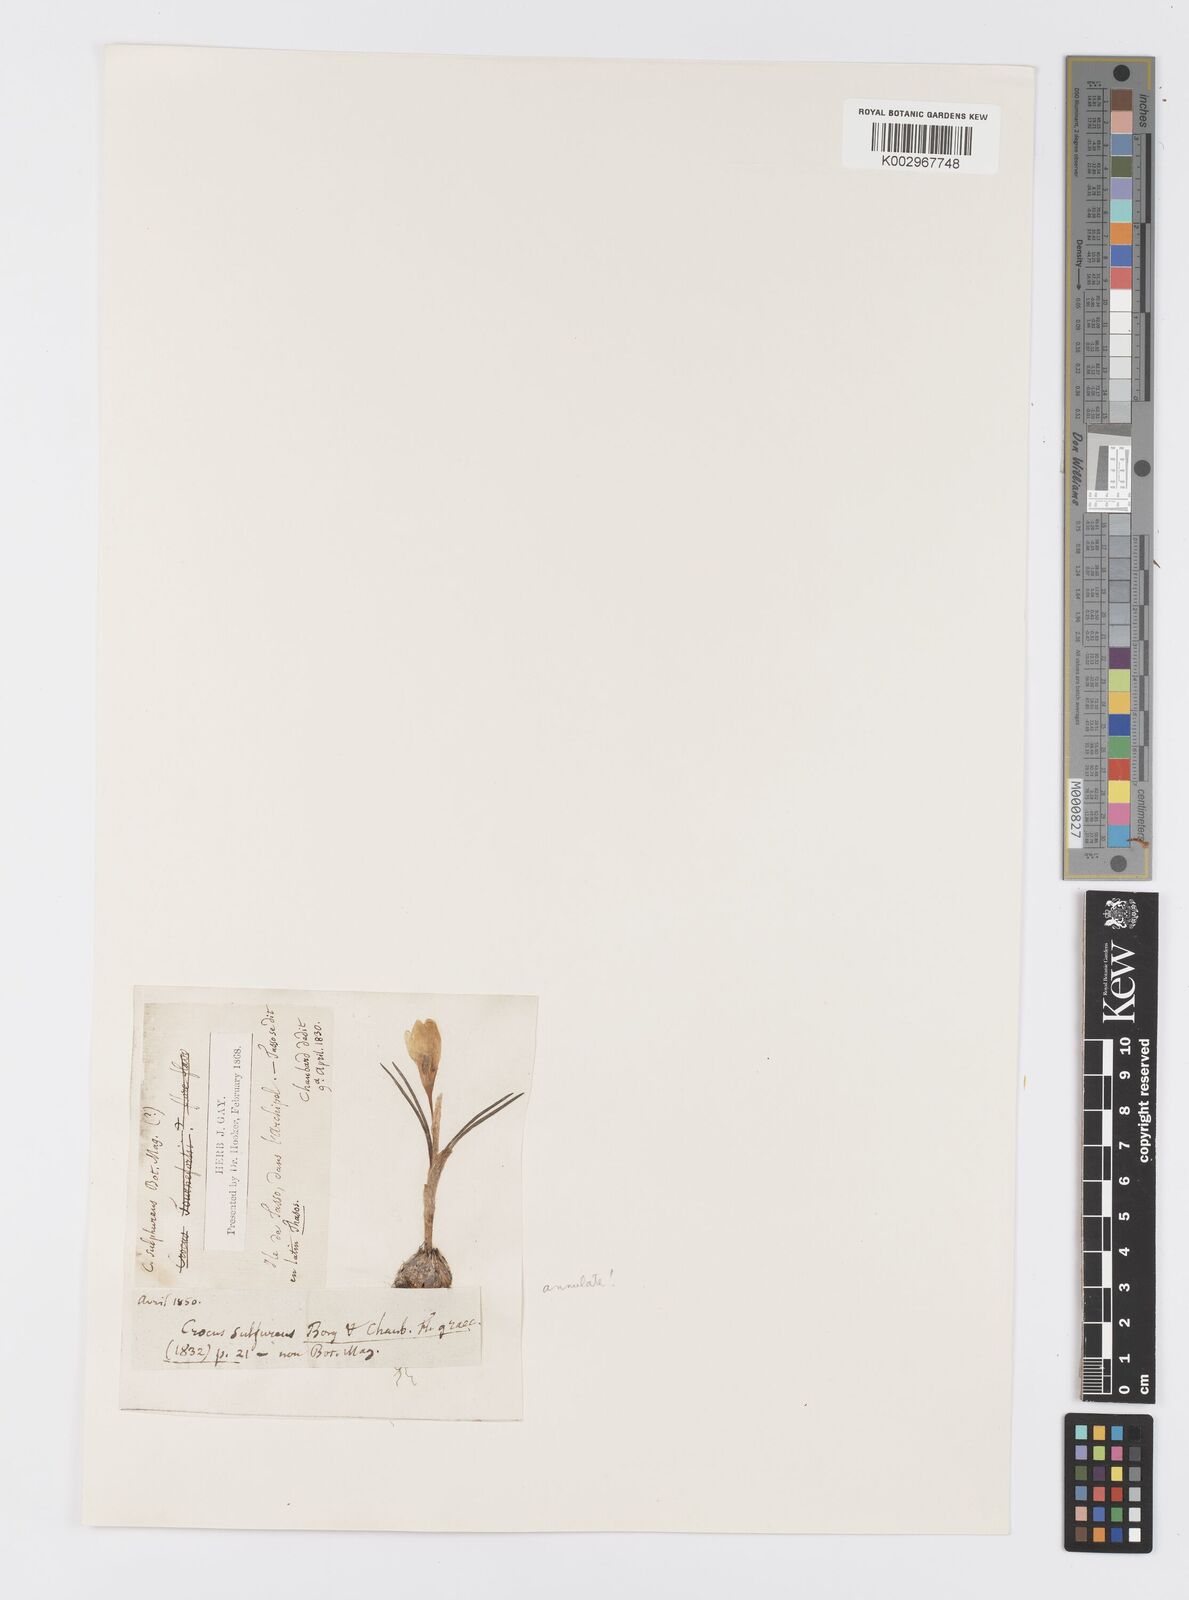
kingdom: Plantae
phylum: Tracheophyta
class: Liliopsida
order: Asparagales
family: Iridaceae
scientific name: Iridaceae
